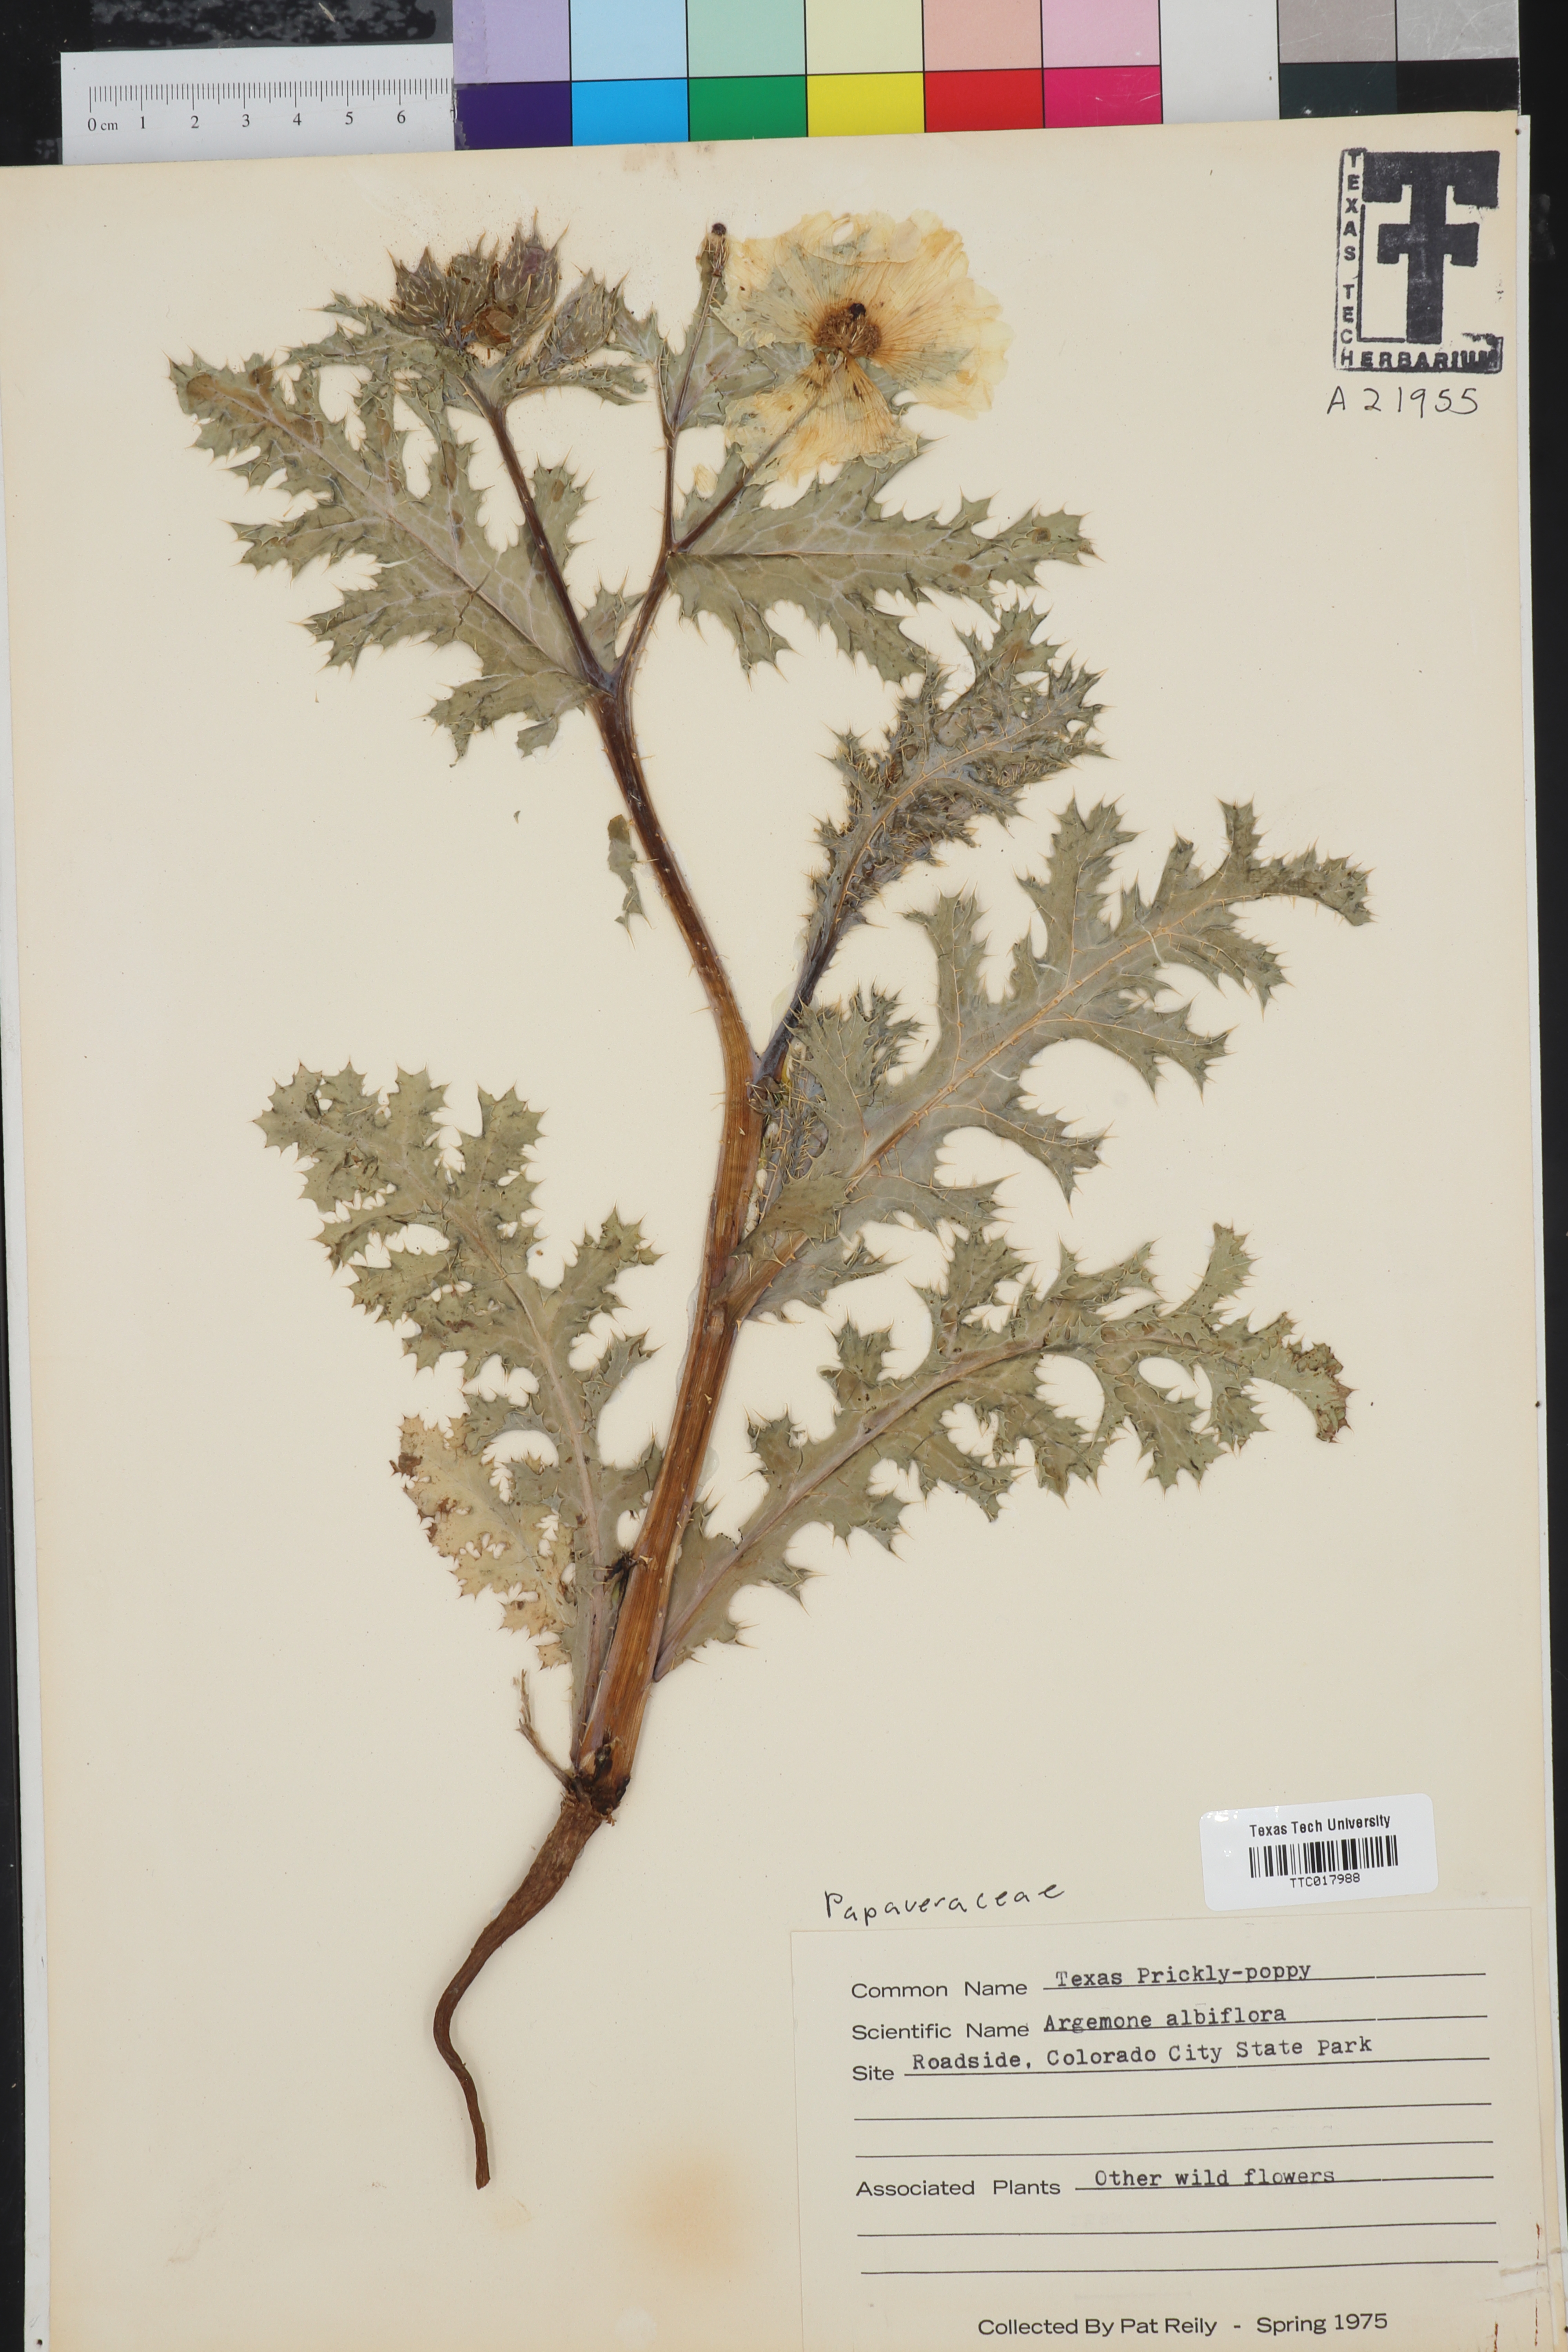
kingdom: Plantae
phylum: Tracheophyta
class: Magnoliopsida
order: Ranunculales
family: Papaveraceae
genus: Argemone
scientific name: Argemone albiflora
